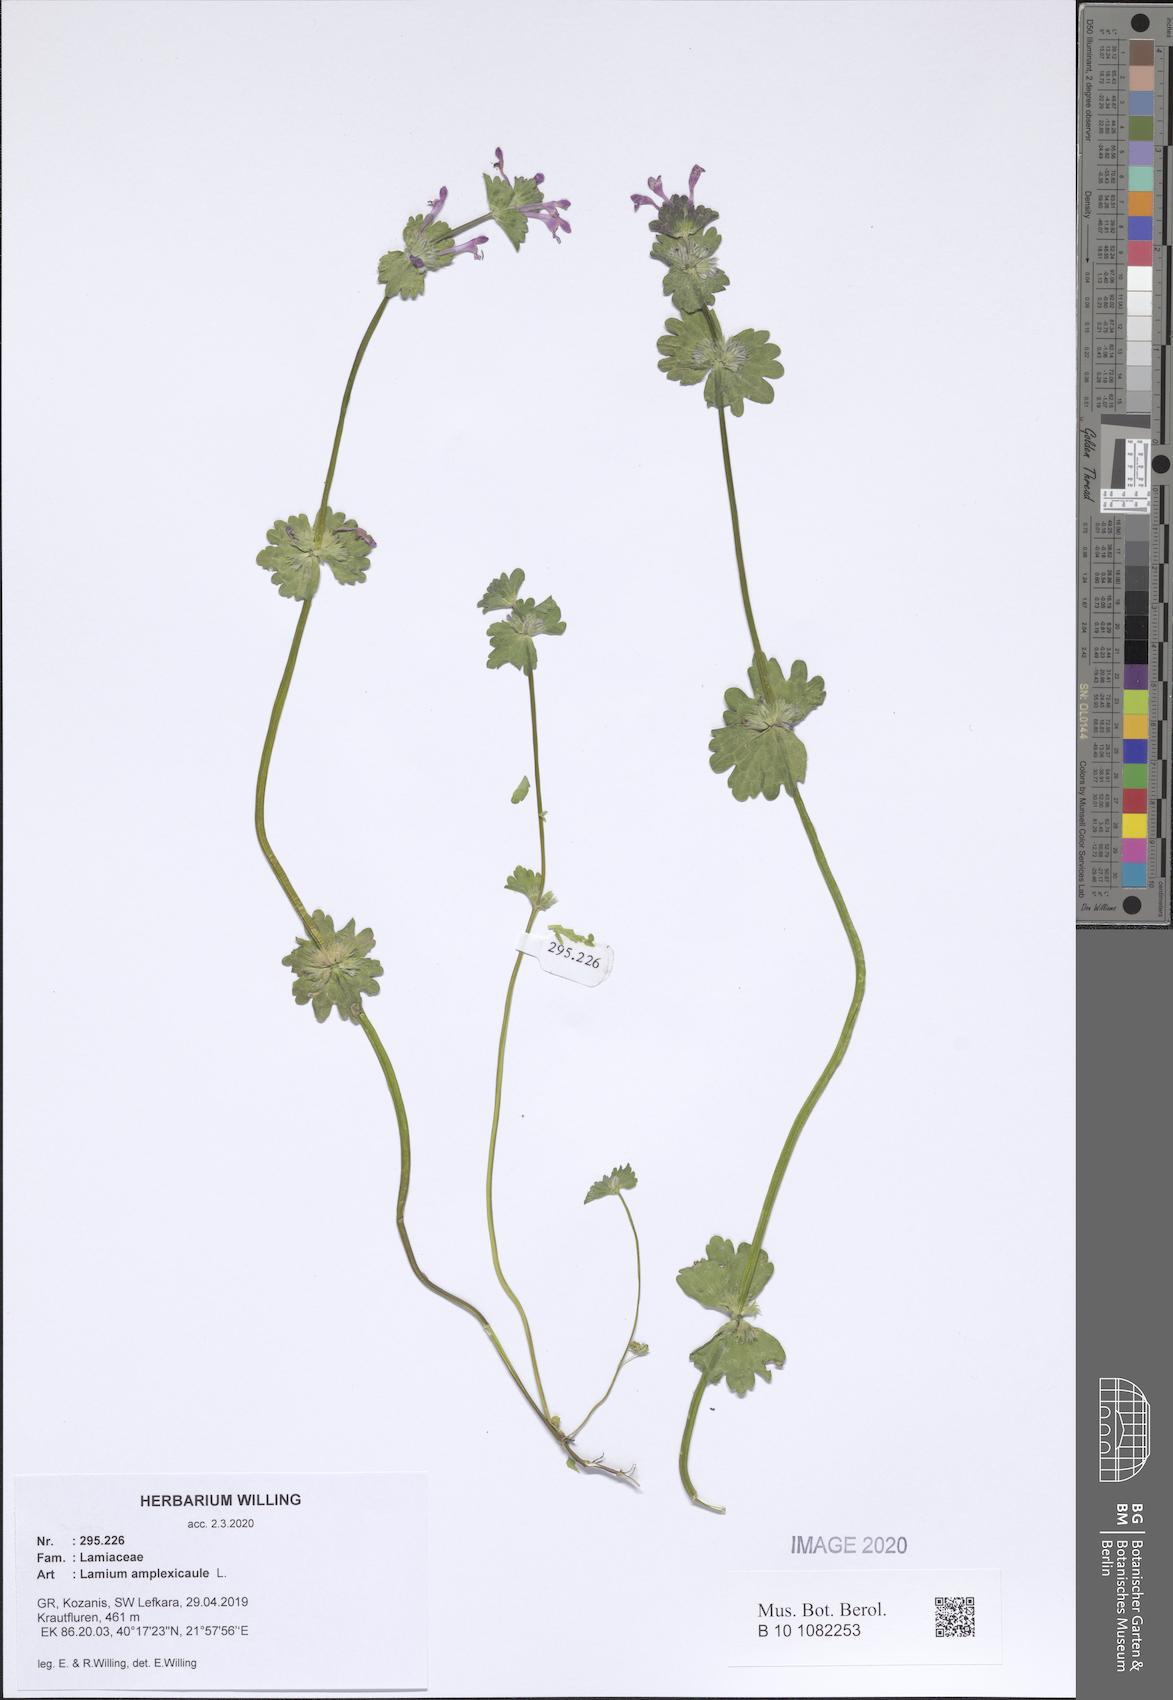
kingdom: Plantae
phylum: Tracheophyta
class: Magnoliopsida
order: Lamiales
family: Lamiaceae
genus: Lamium
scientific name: Lamium amplexicaule
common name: Henbit dead-nettle
